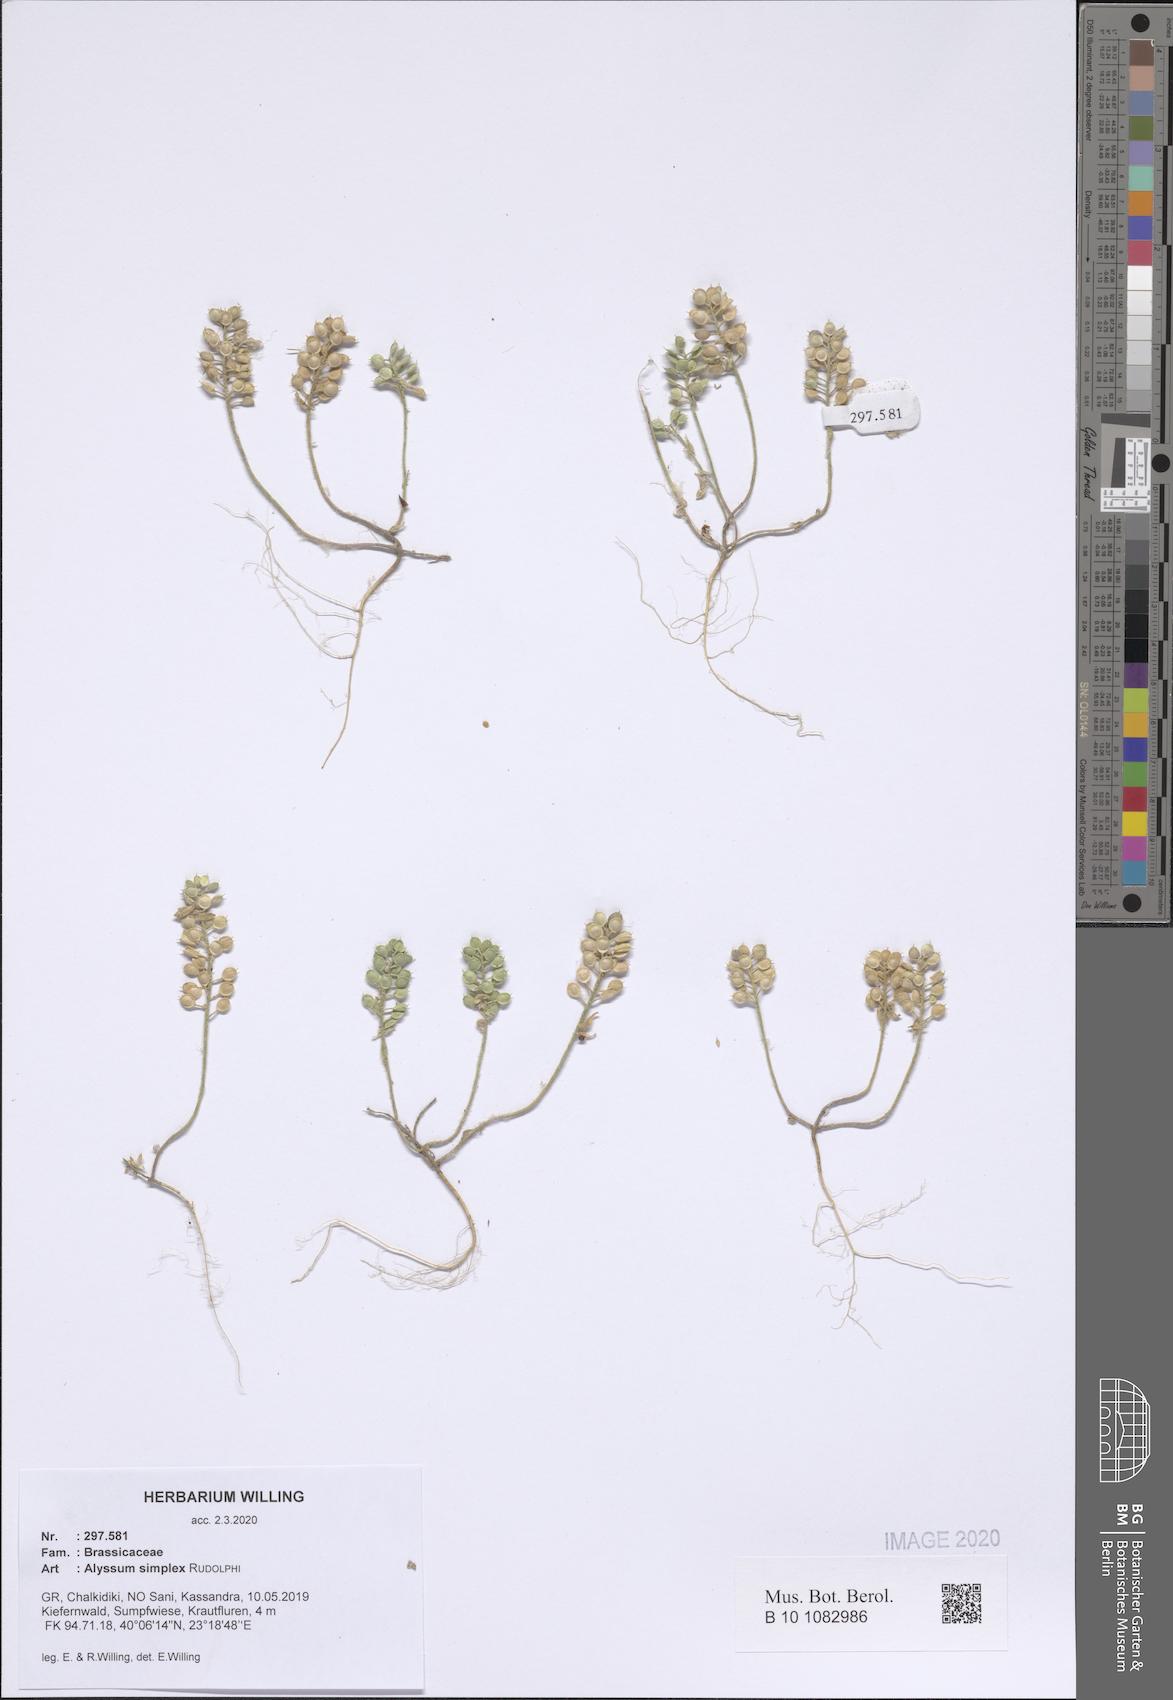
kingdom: Plantae
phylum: Tracheophyta
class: Magnoliopsida
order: Brassicales
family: Brassicaceae
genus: Alyssum
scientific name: Alyssum simplex
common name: Alyssum
